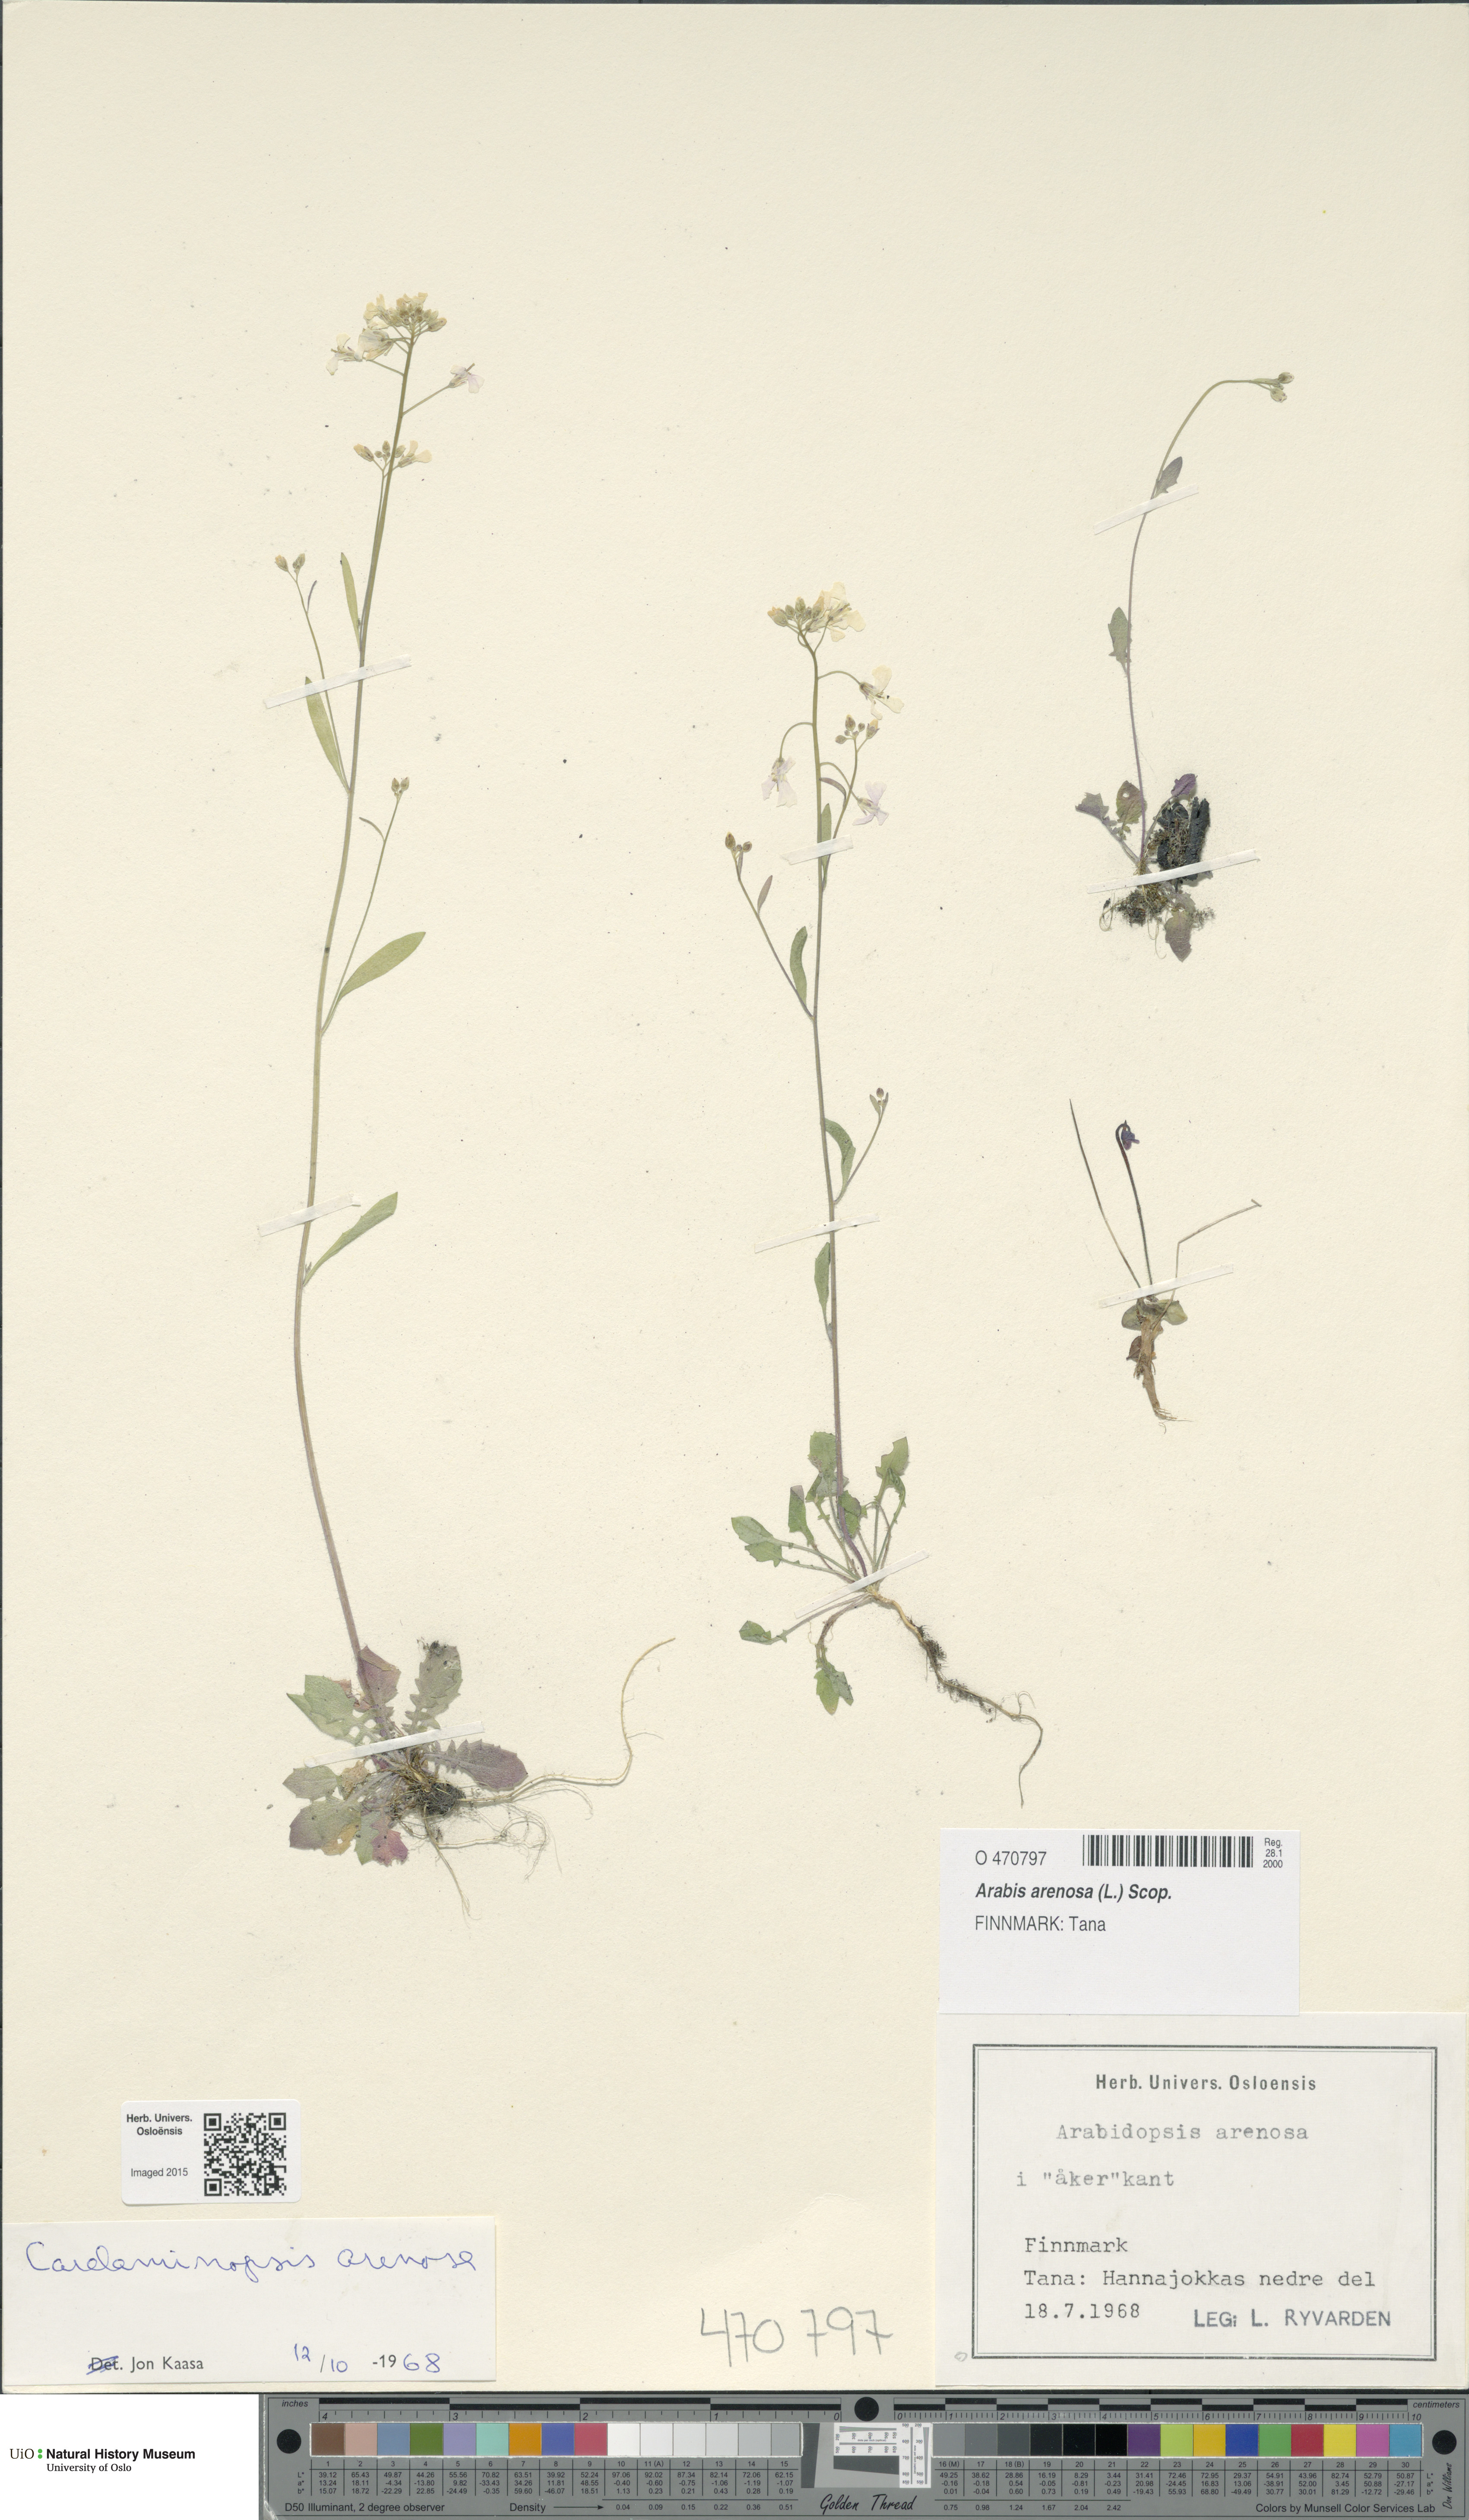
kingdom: Plantae
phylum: Tracheophyta
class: Magnoliopsida
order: Brassicales
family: Brassicaceae
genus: Arabidopsis
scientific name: Arabidopsis arenosa
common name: Sand rock-cress
